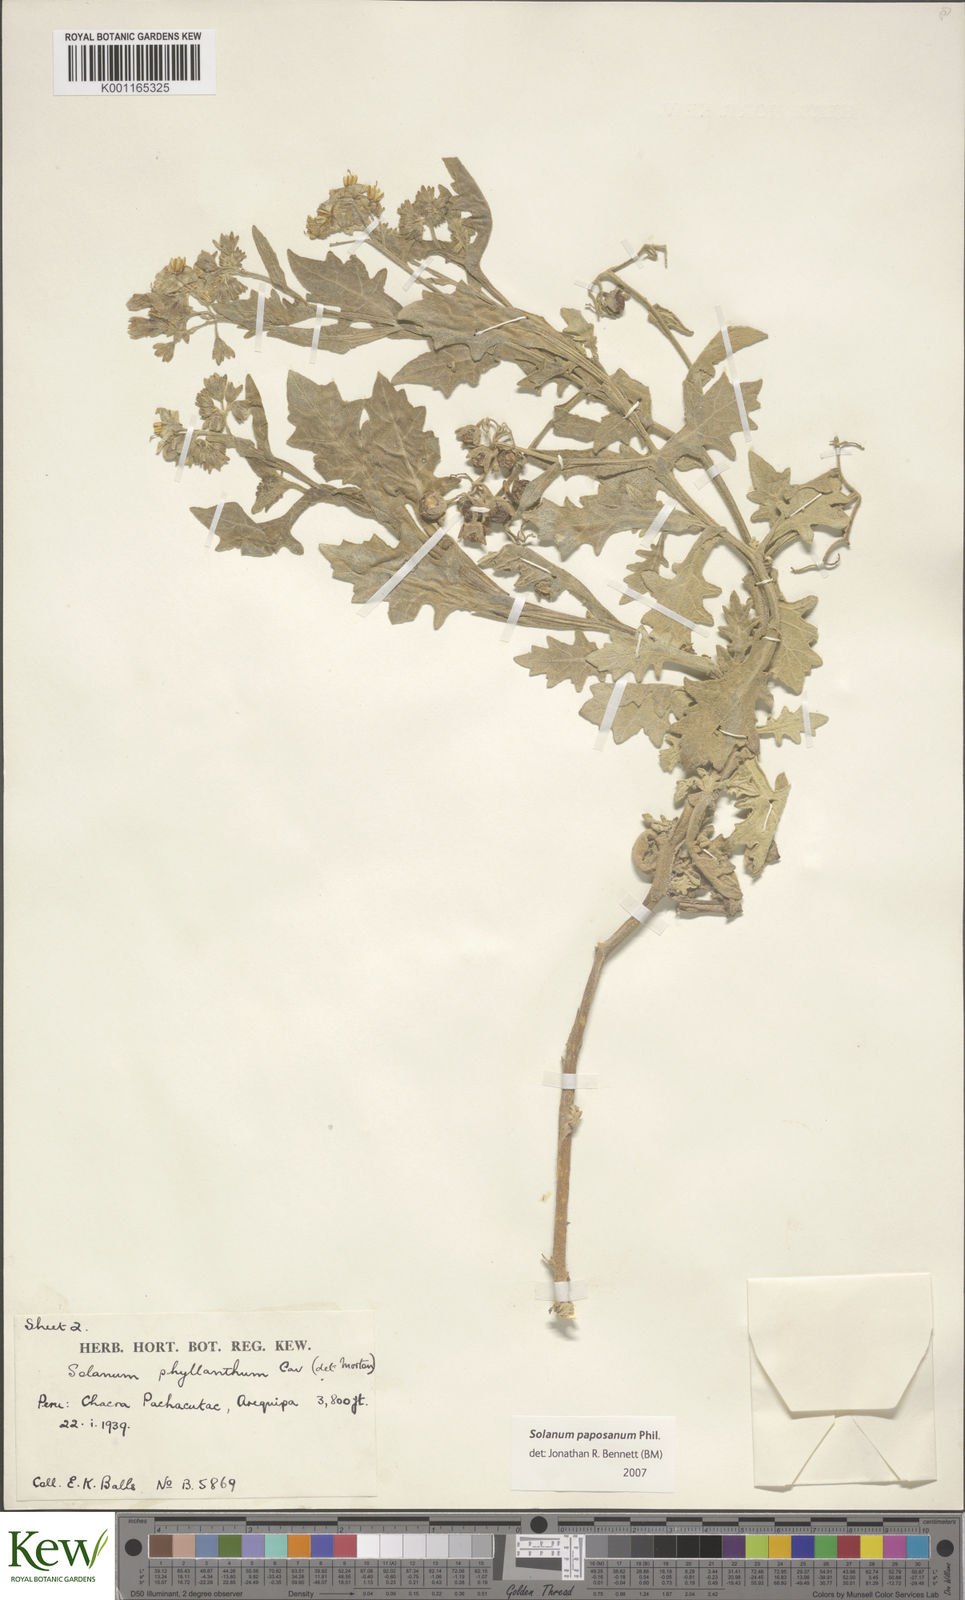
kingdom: Plantae
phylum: Tracheophyta
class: Magnoliopsida
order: Solanales
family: Solanaceae
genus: Solanum
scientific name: Solanum paposanum
